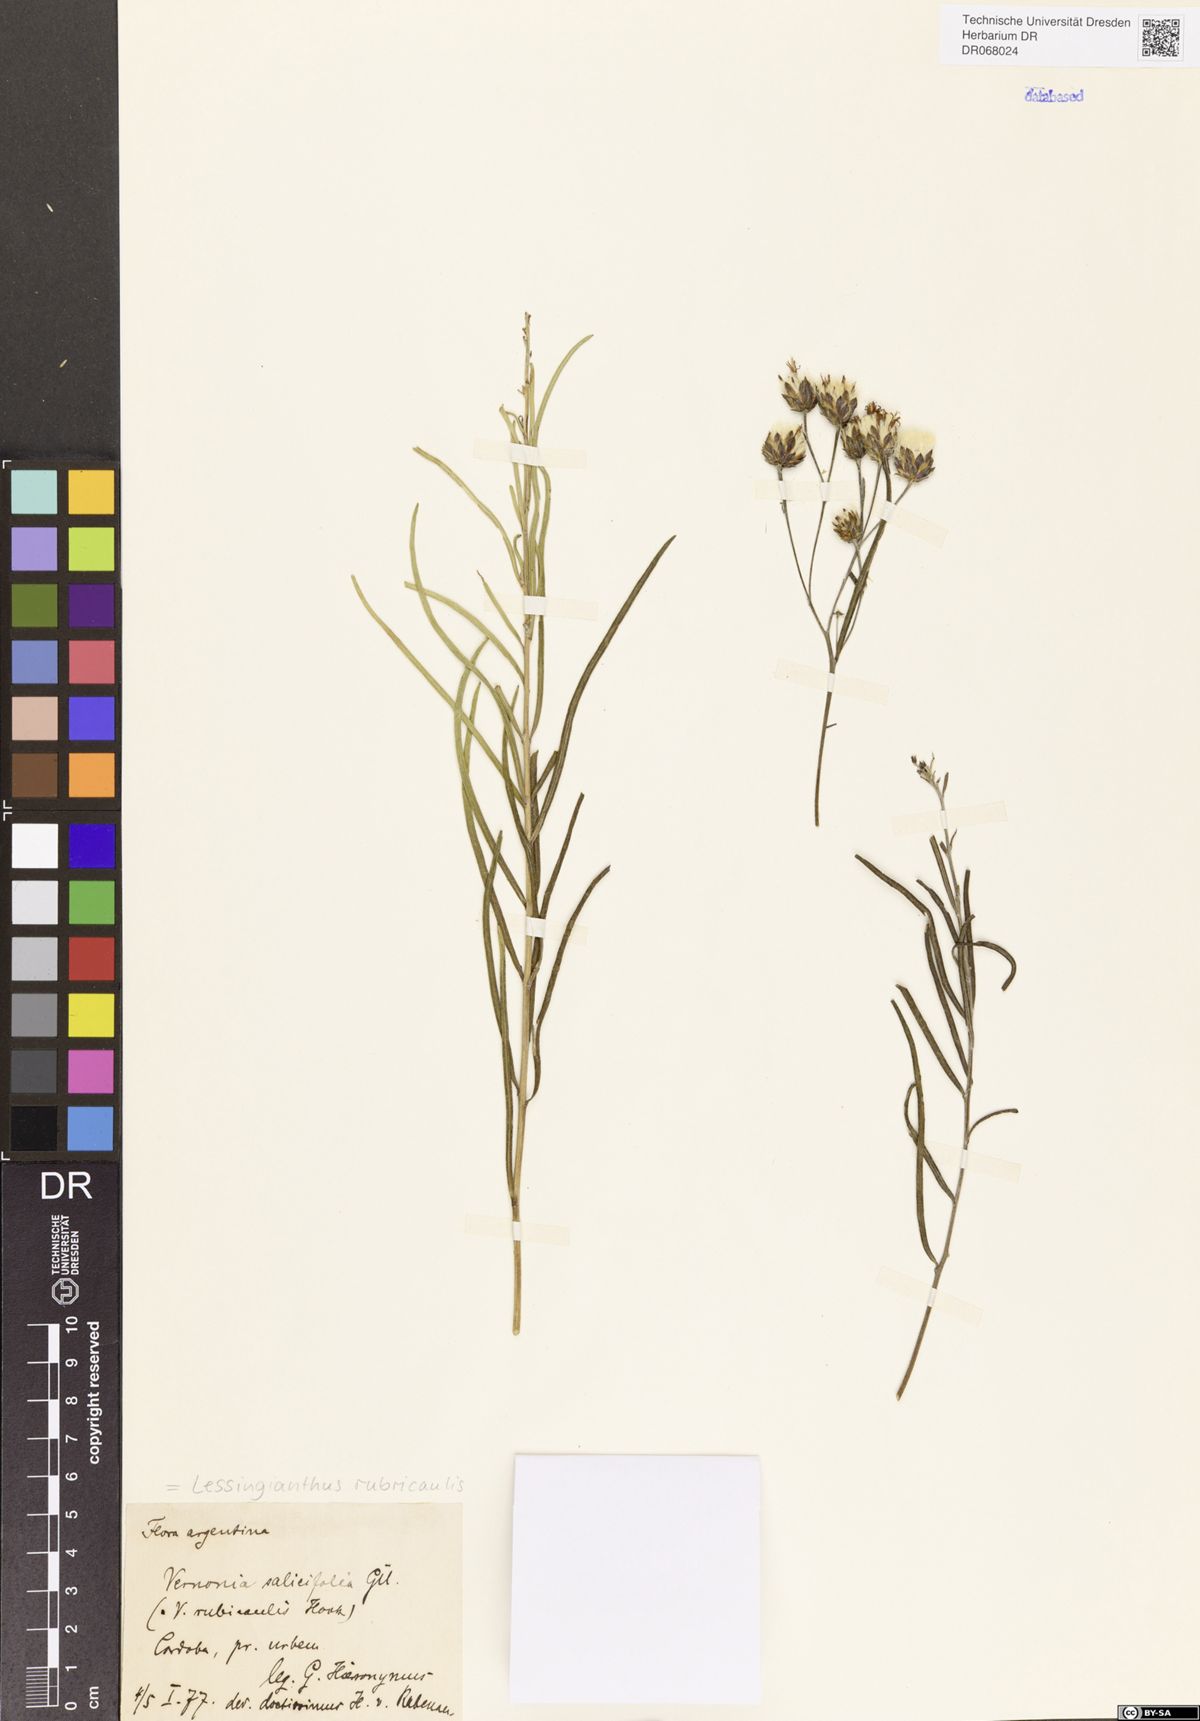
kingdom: Plantae
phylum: Tracheophyta
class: Magnoliopsida
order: Asterales
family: Asteraceae
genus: Lessingianthus
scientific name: Lessingianthus rubricaulis
